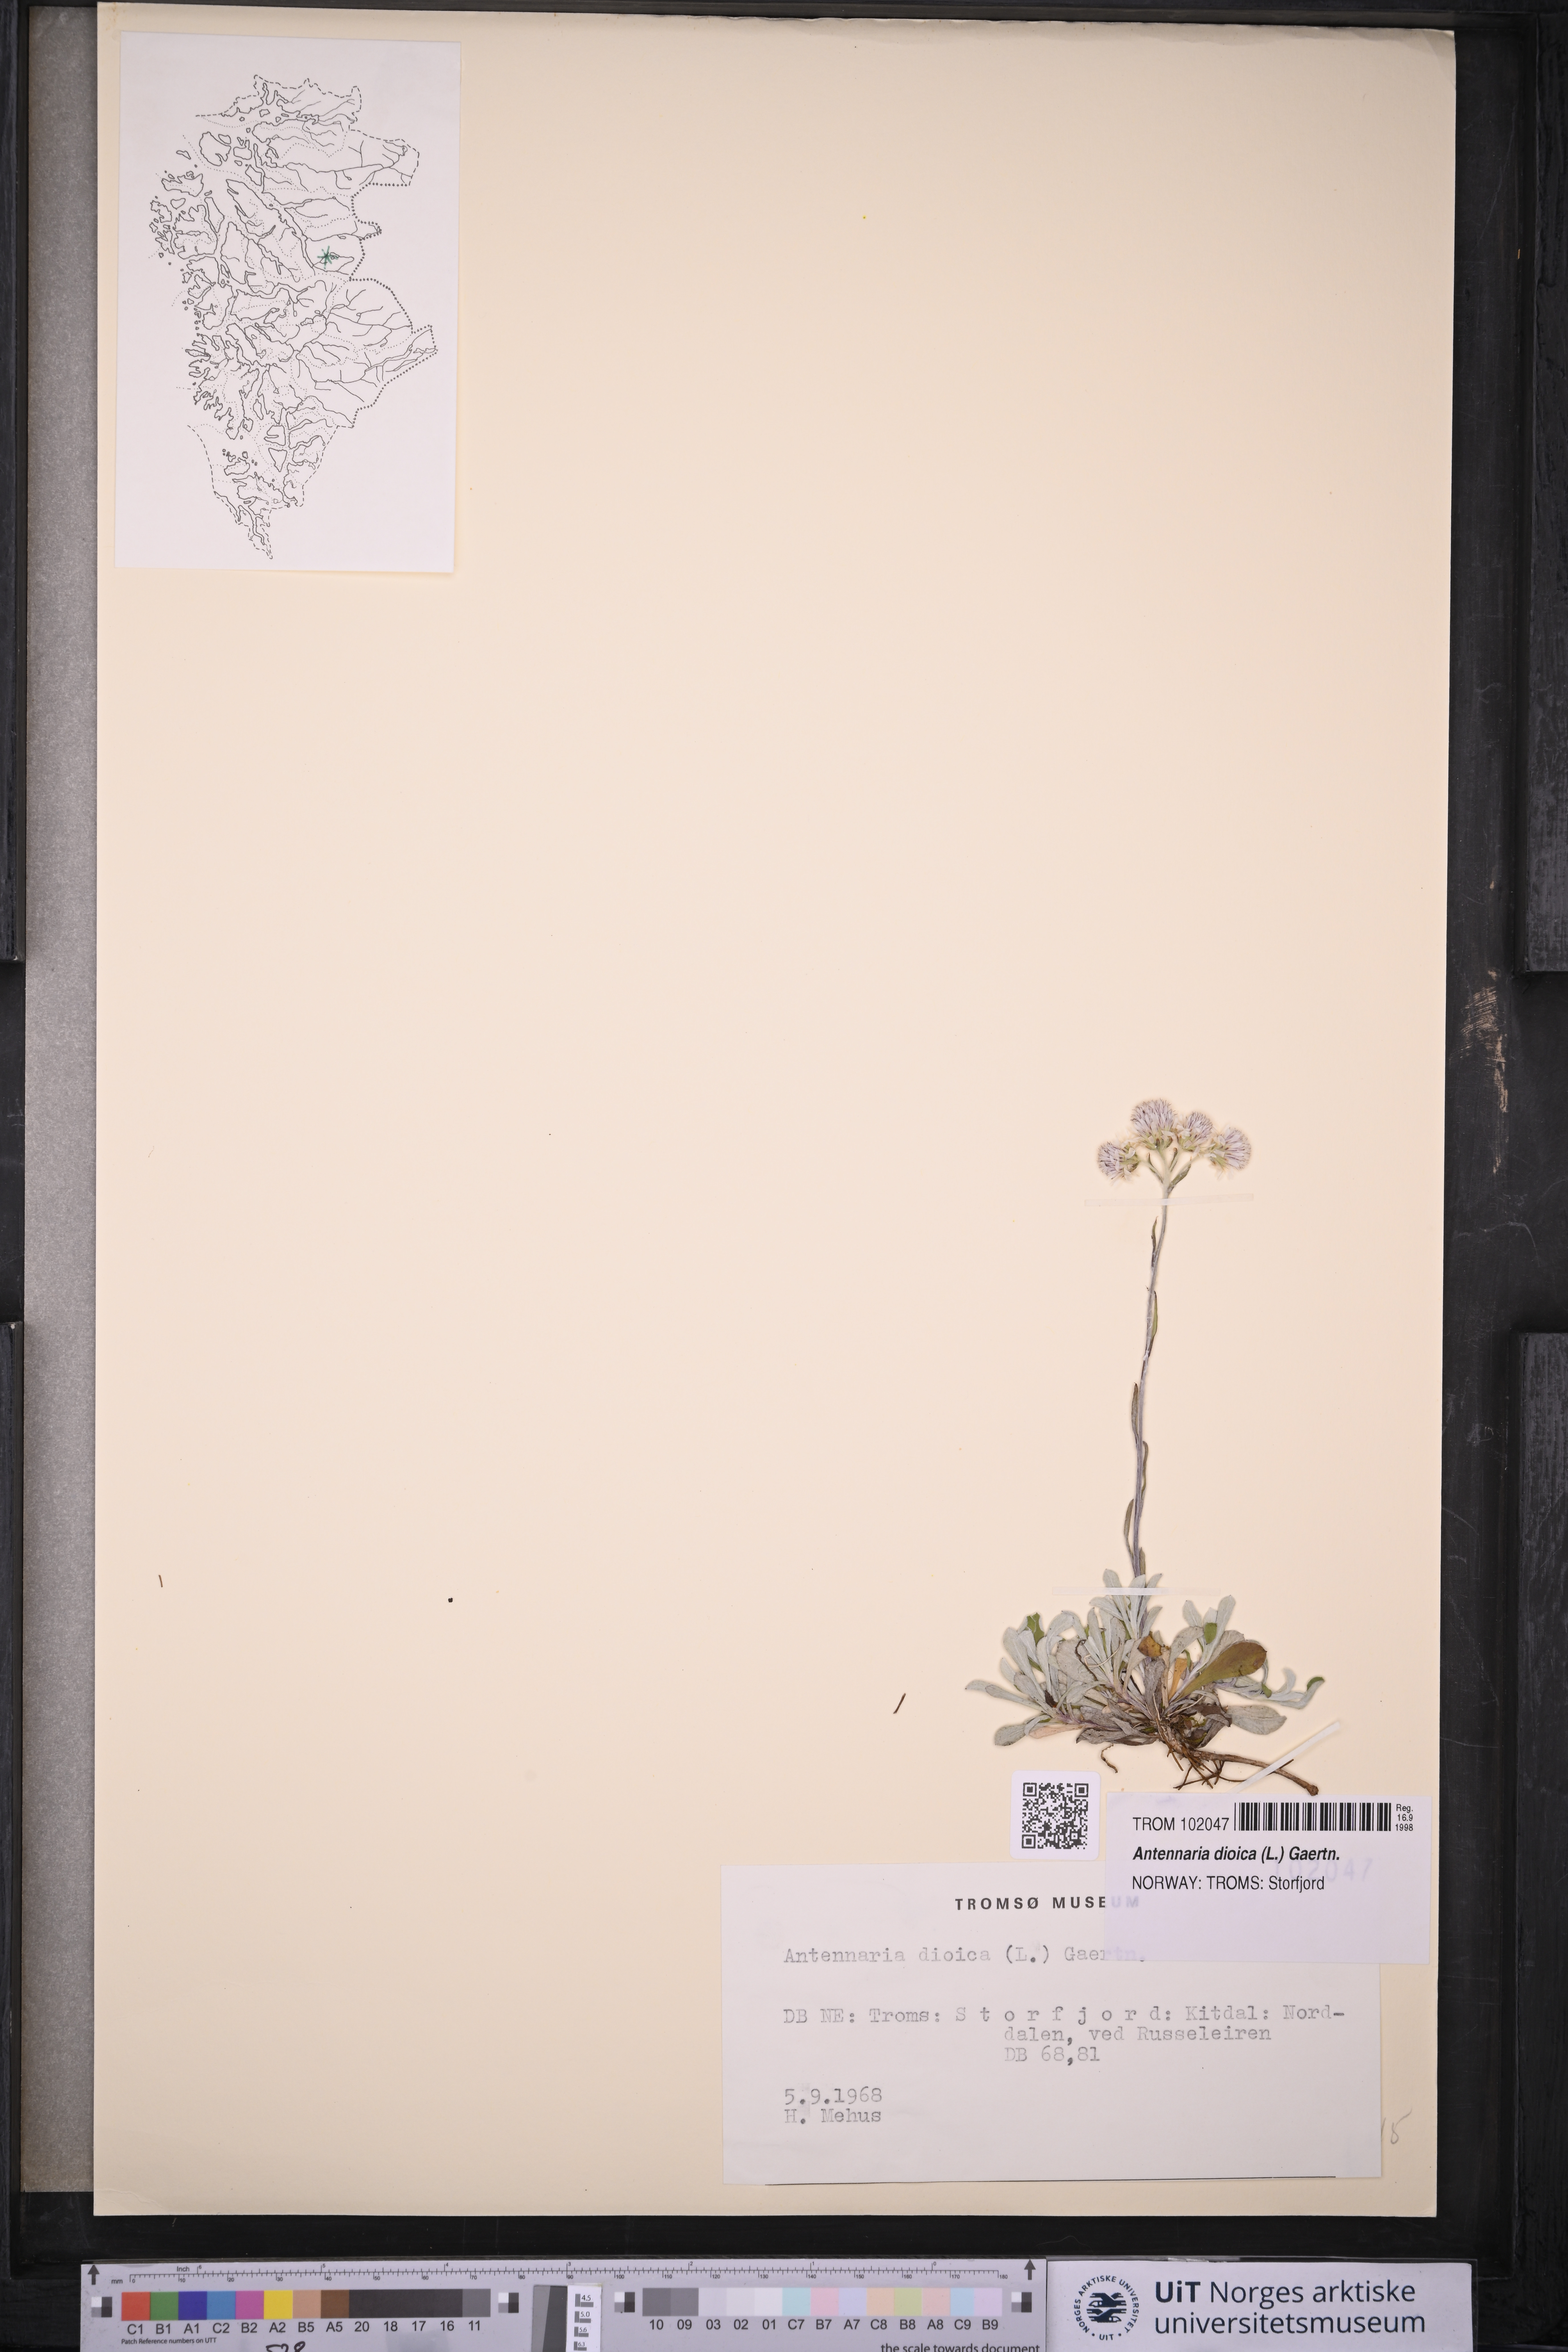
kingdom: Plantae
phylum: Tracheophyta
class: Magnoliopsida
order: Asterales
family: Asteraceae
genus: Antennaria
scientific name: Antennaria dioica
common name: Mountain everlasting
